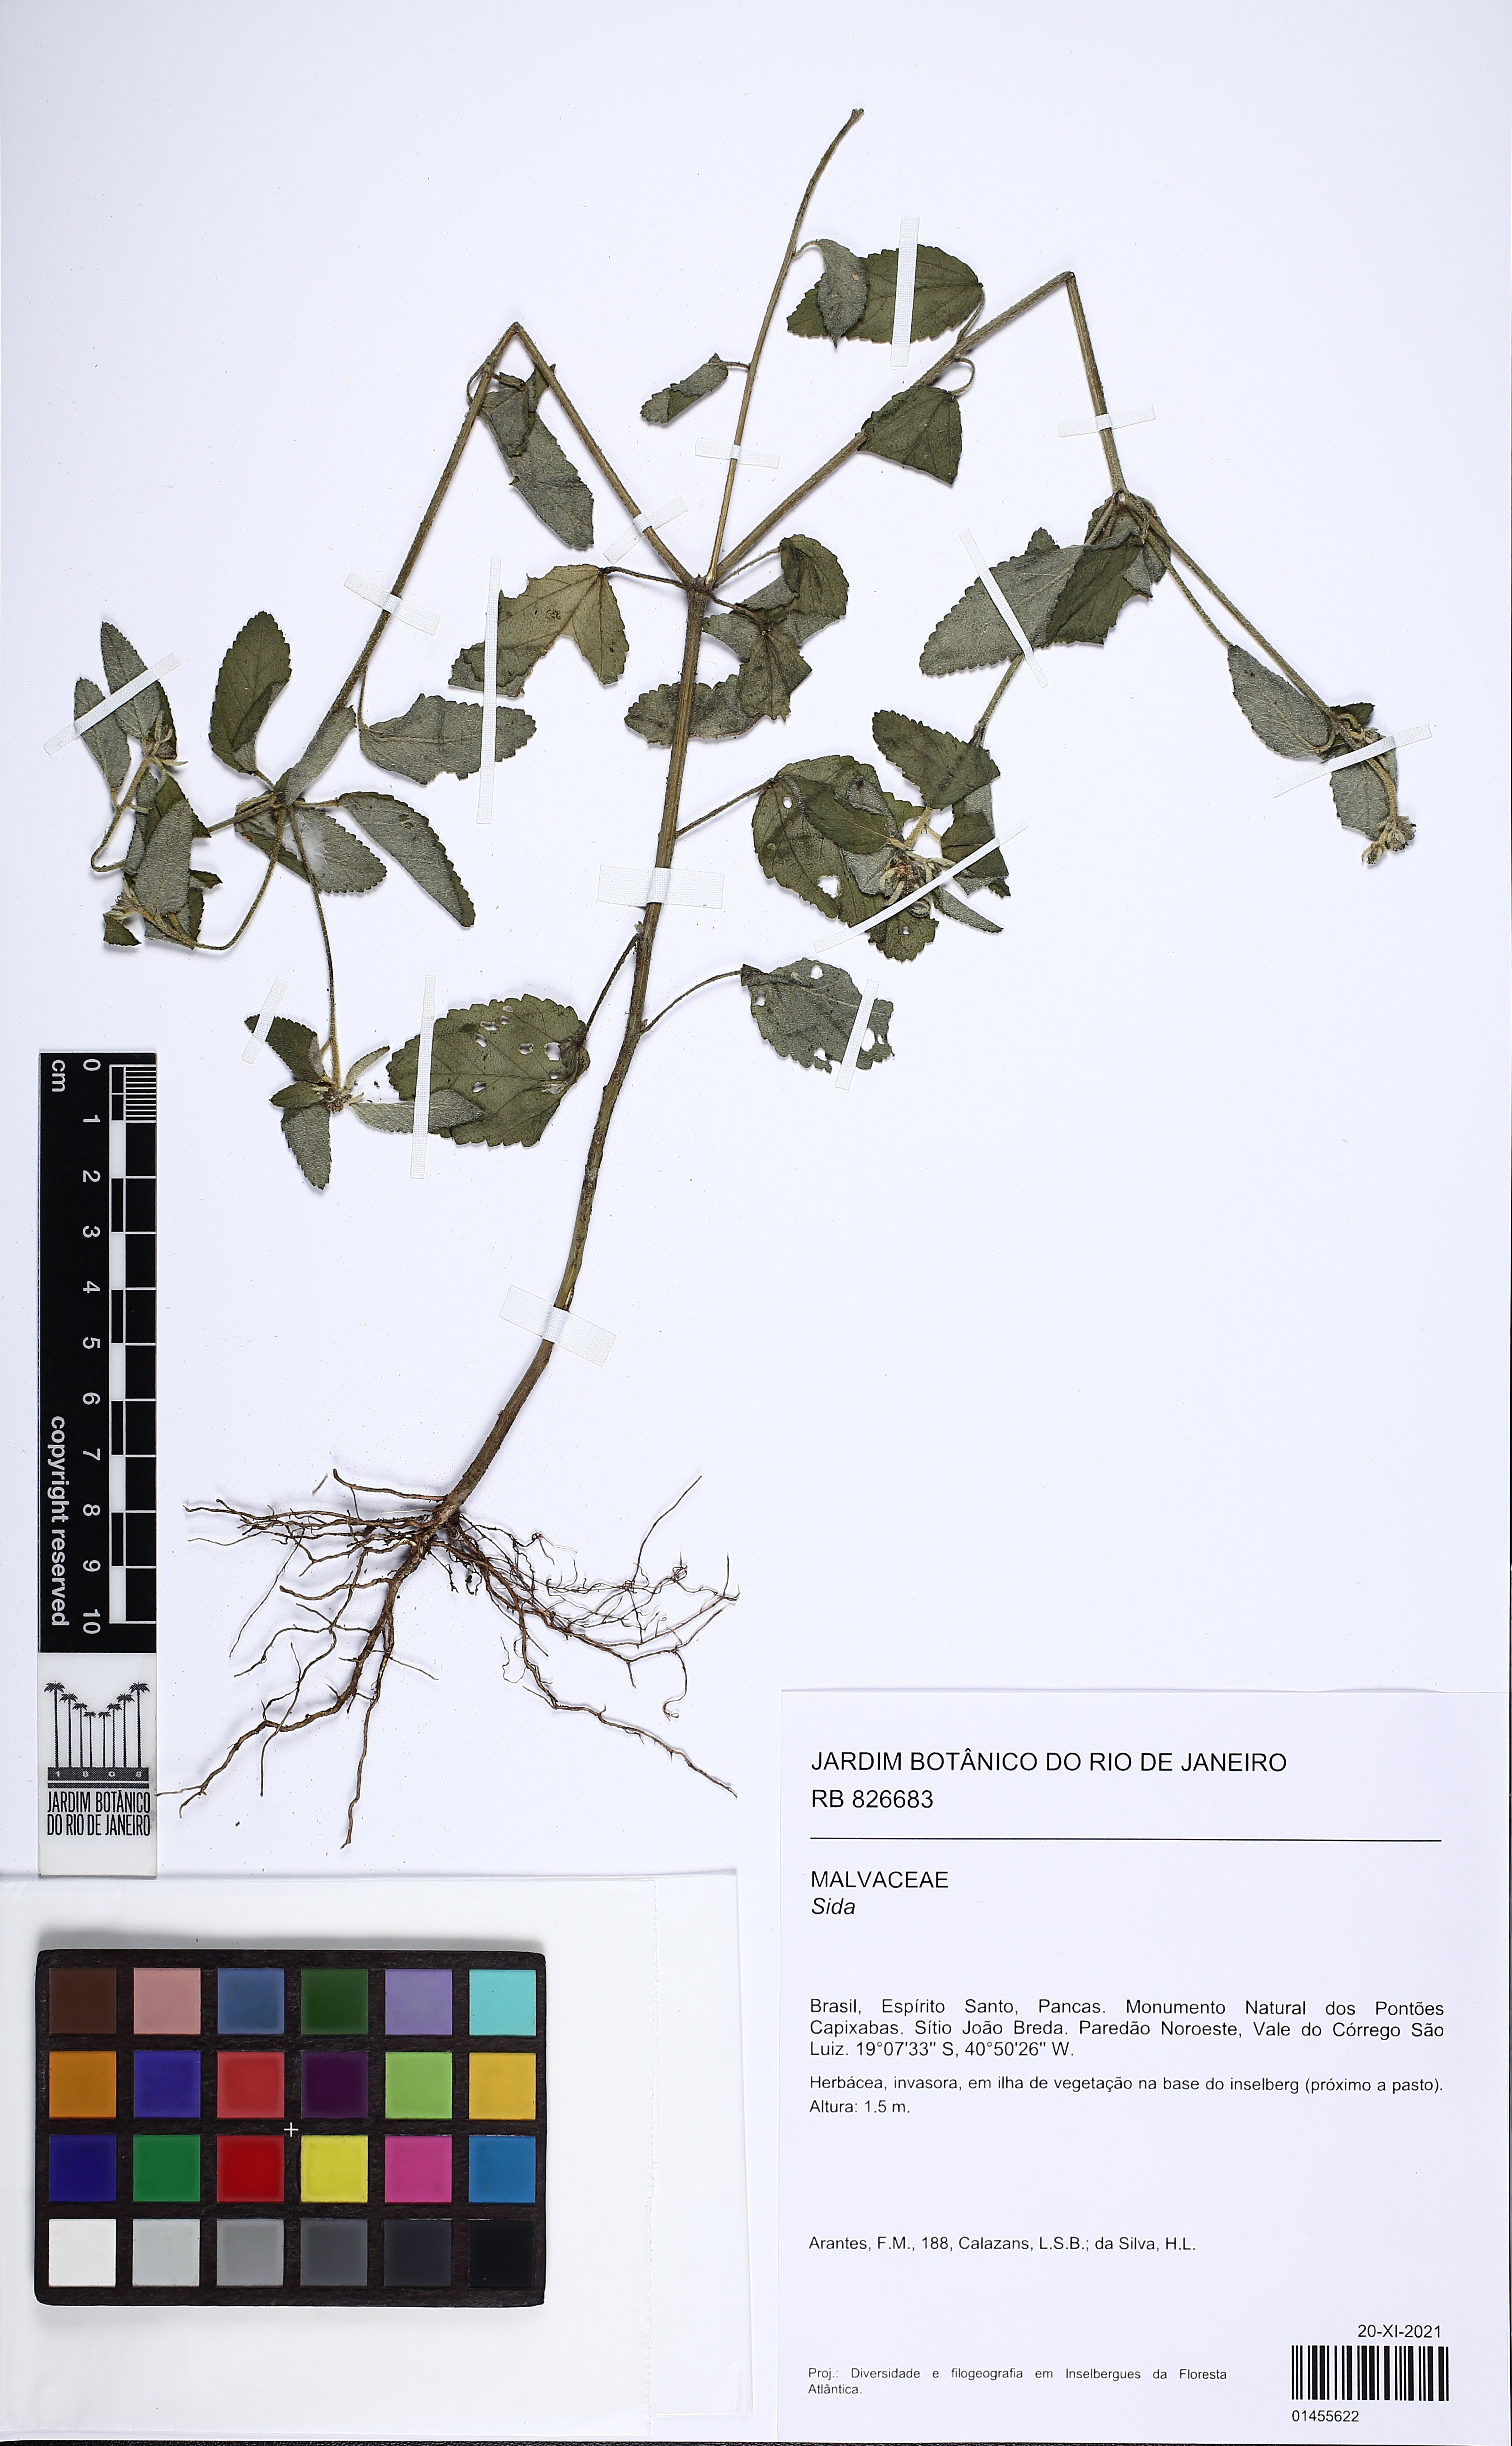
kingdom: Plantae
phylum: Tracheophyta
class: Magnoliopsida
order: Malvales
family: Malvaceae
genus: Sida
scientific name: Sida
